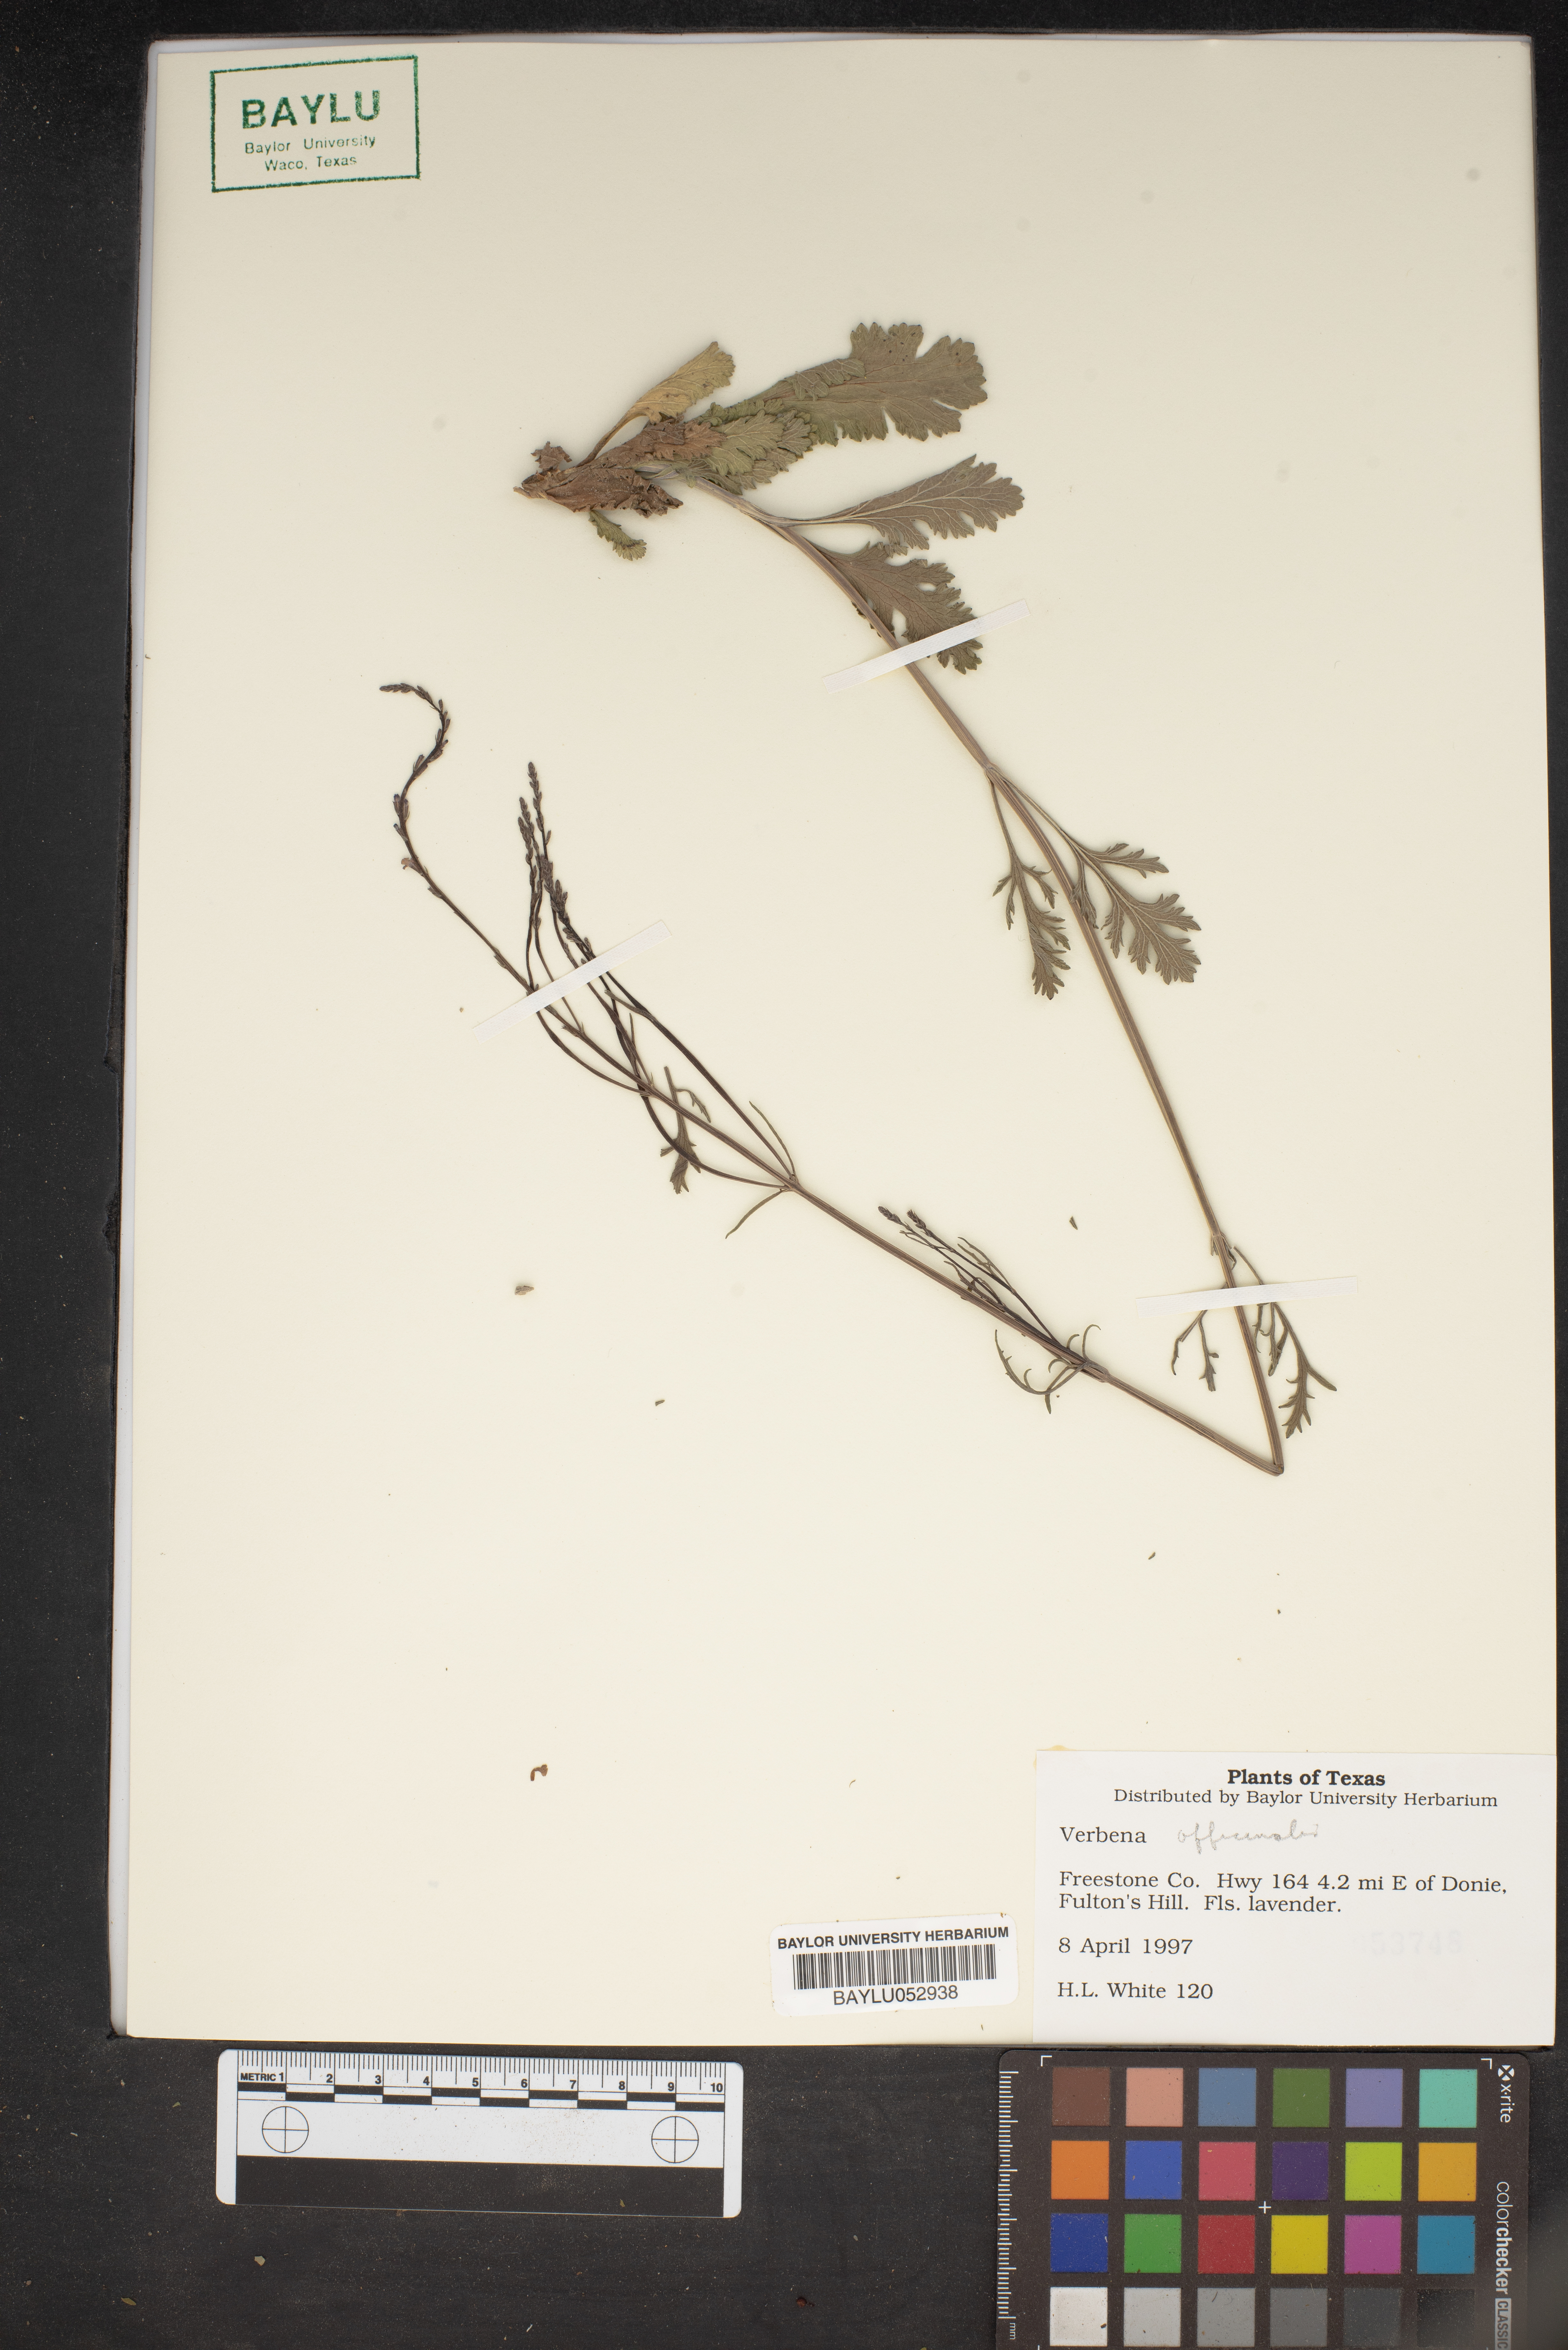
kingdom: Plantae
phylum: Tracheophyta
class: Magnoliopsida
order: Lamiales
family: Verbenaceae
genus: Verbena
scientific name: Verbena officinalis
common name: Vervain
